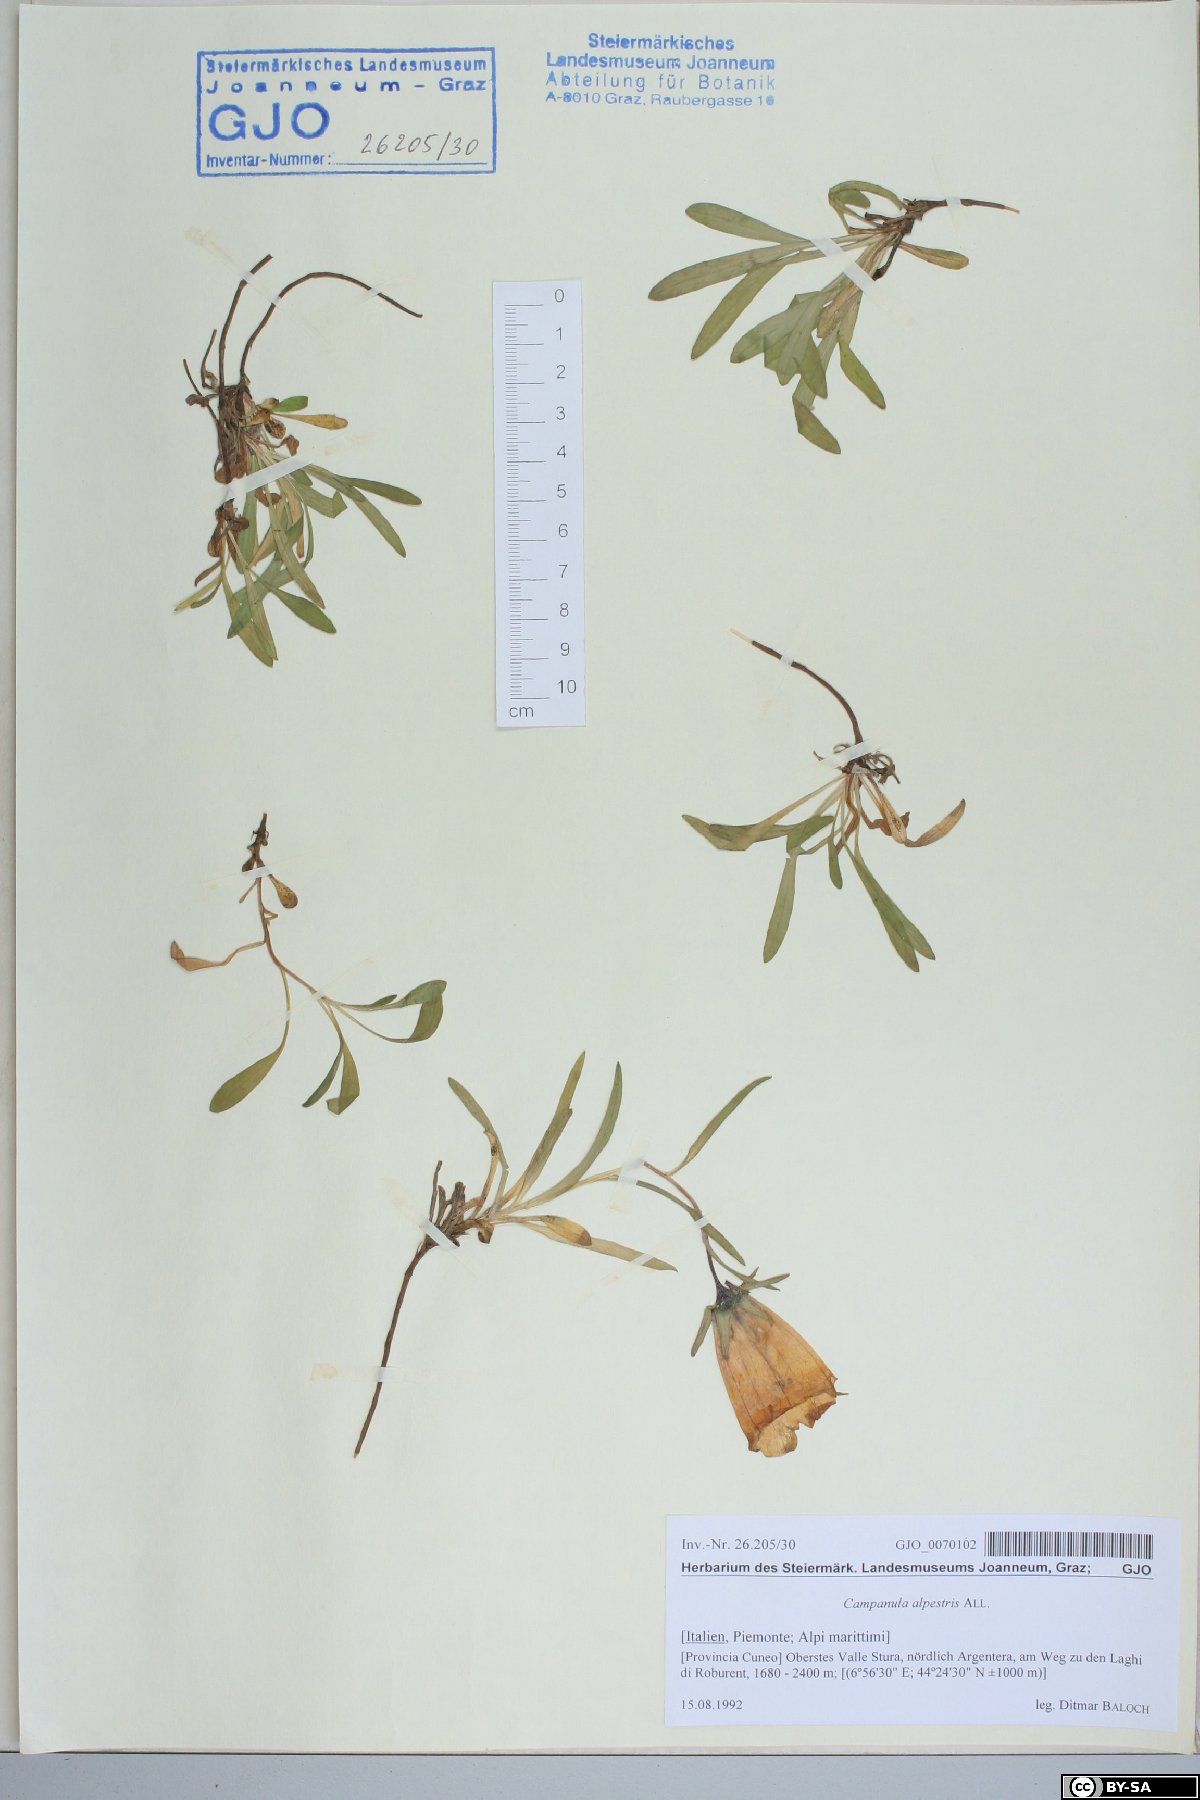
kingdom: Plantae
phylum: Tracheophyta
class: Magnoliopsida
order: Asterales
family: Campanulaceae
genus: Campanula
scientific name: Campanula alpestris
